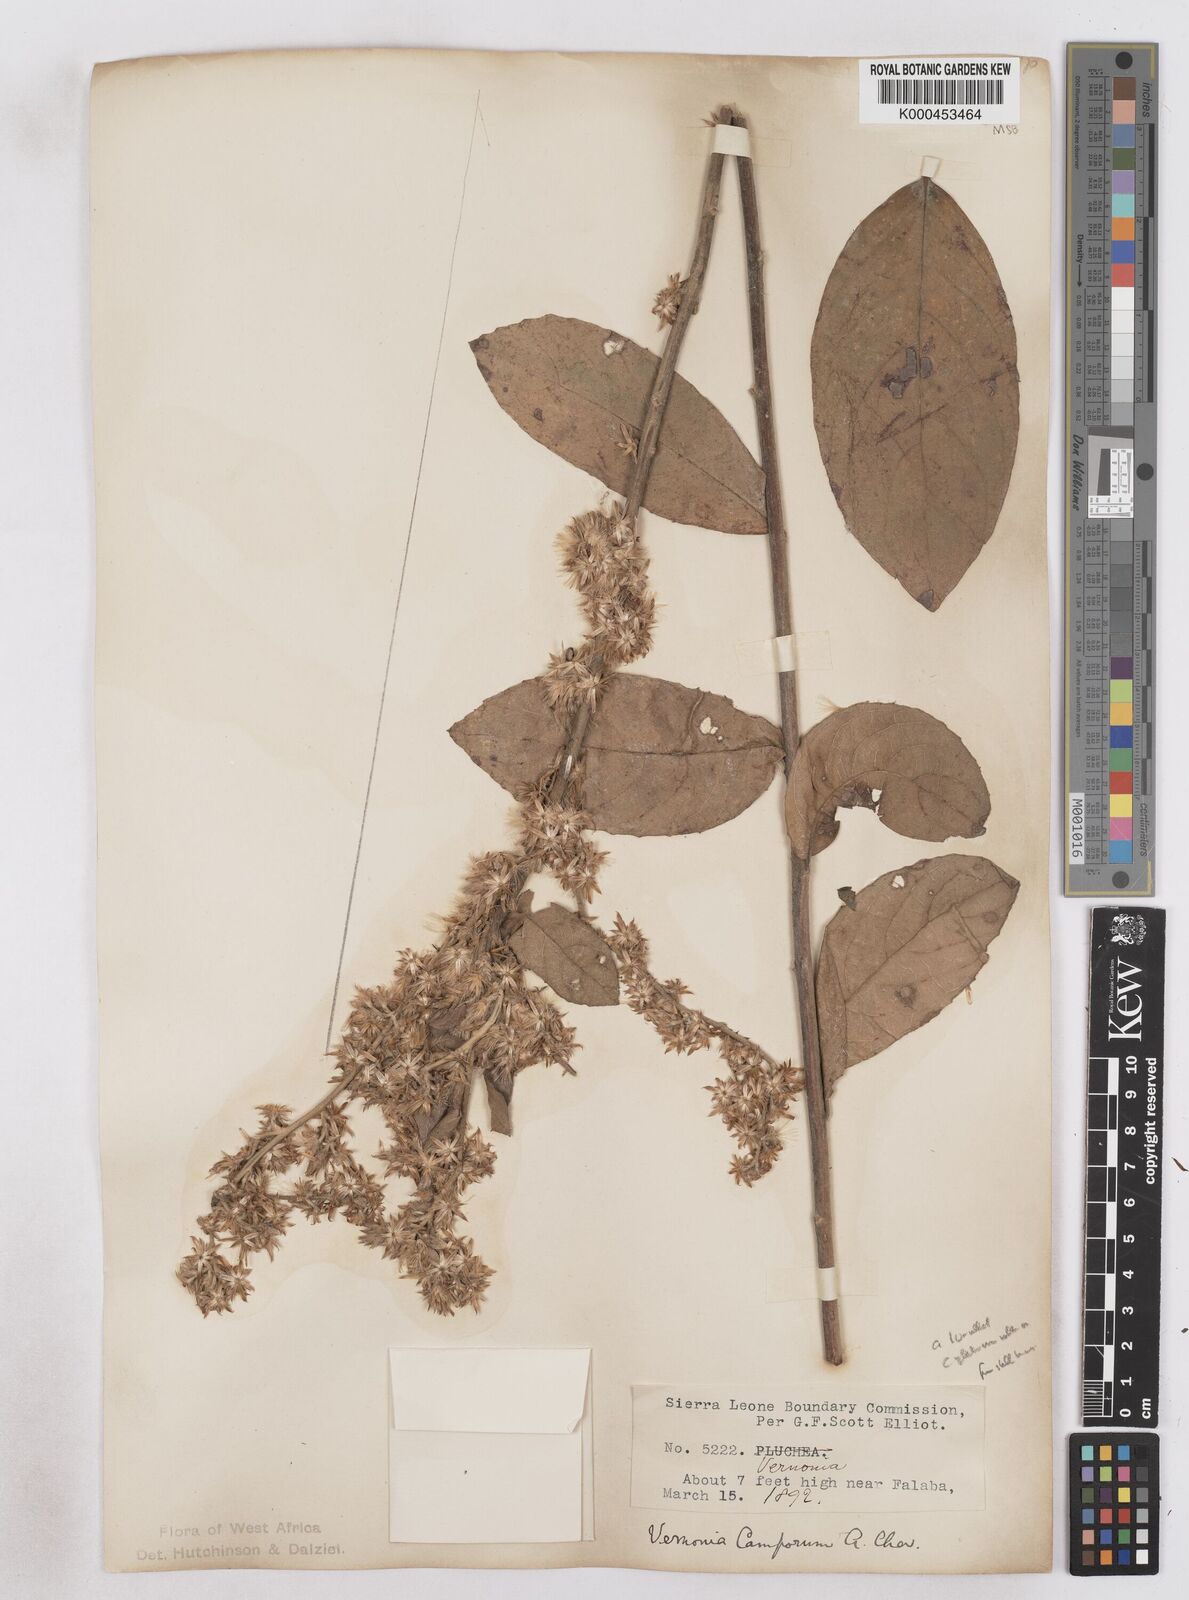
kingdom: Plantae
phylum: Tracheophyta
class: Magnoliopsida
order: Asterales
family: Asteraceae
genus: Vernoniastrum
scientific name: Vernoniastrum camporum
